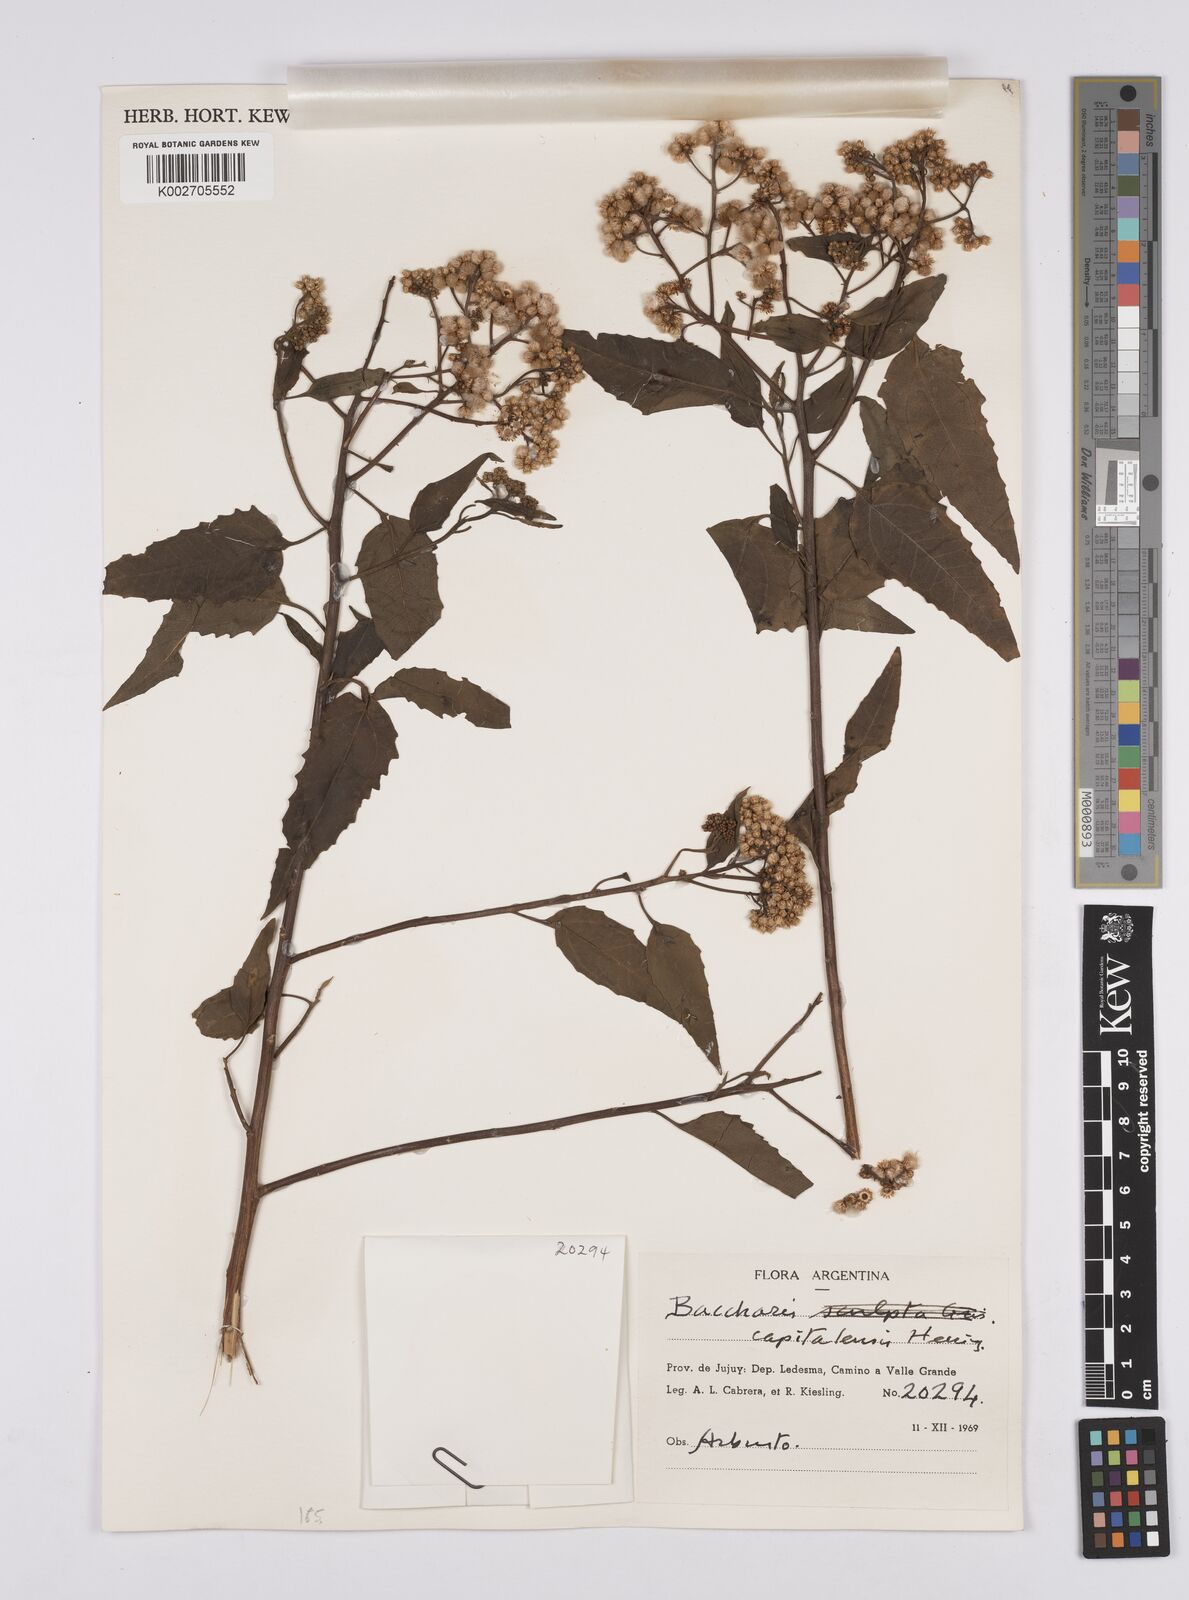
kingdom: Plantae
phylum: Tracheophyta
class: Magnoliopsida
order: Asterales
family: Asteraceae
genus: Baccharis
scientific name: Baccharis capitalensis
